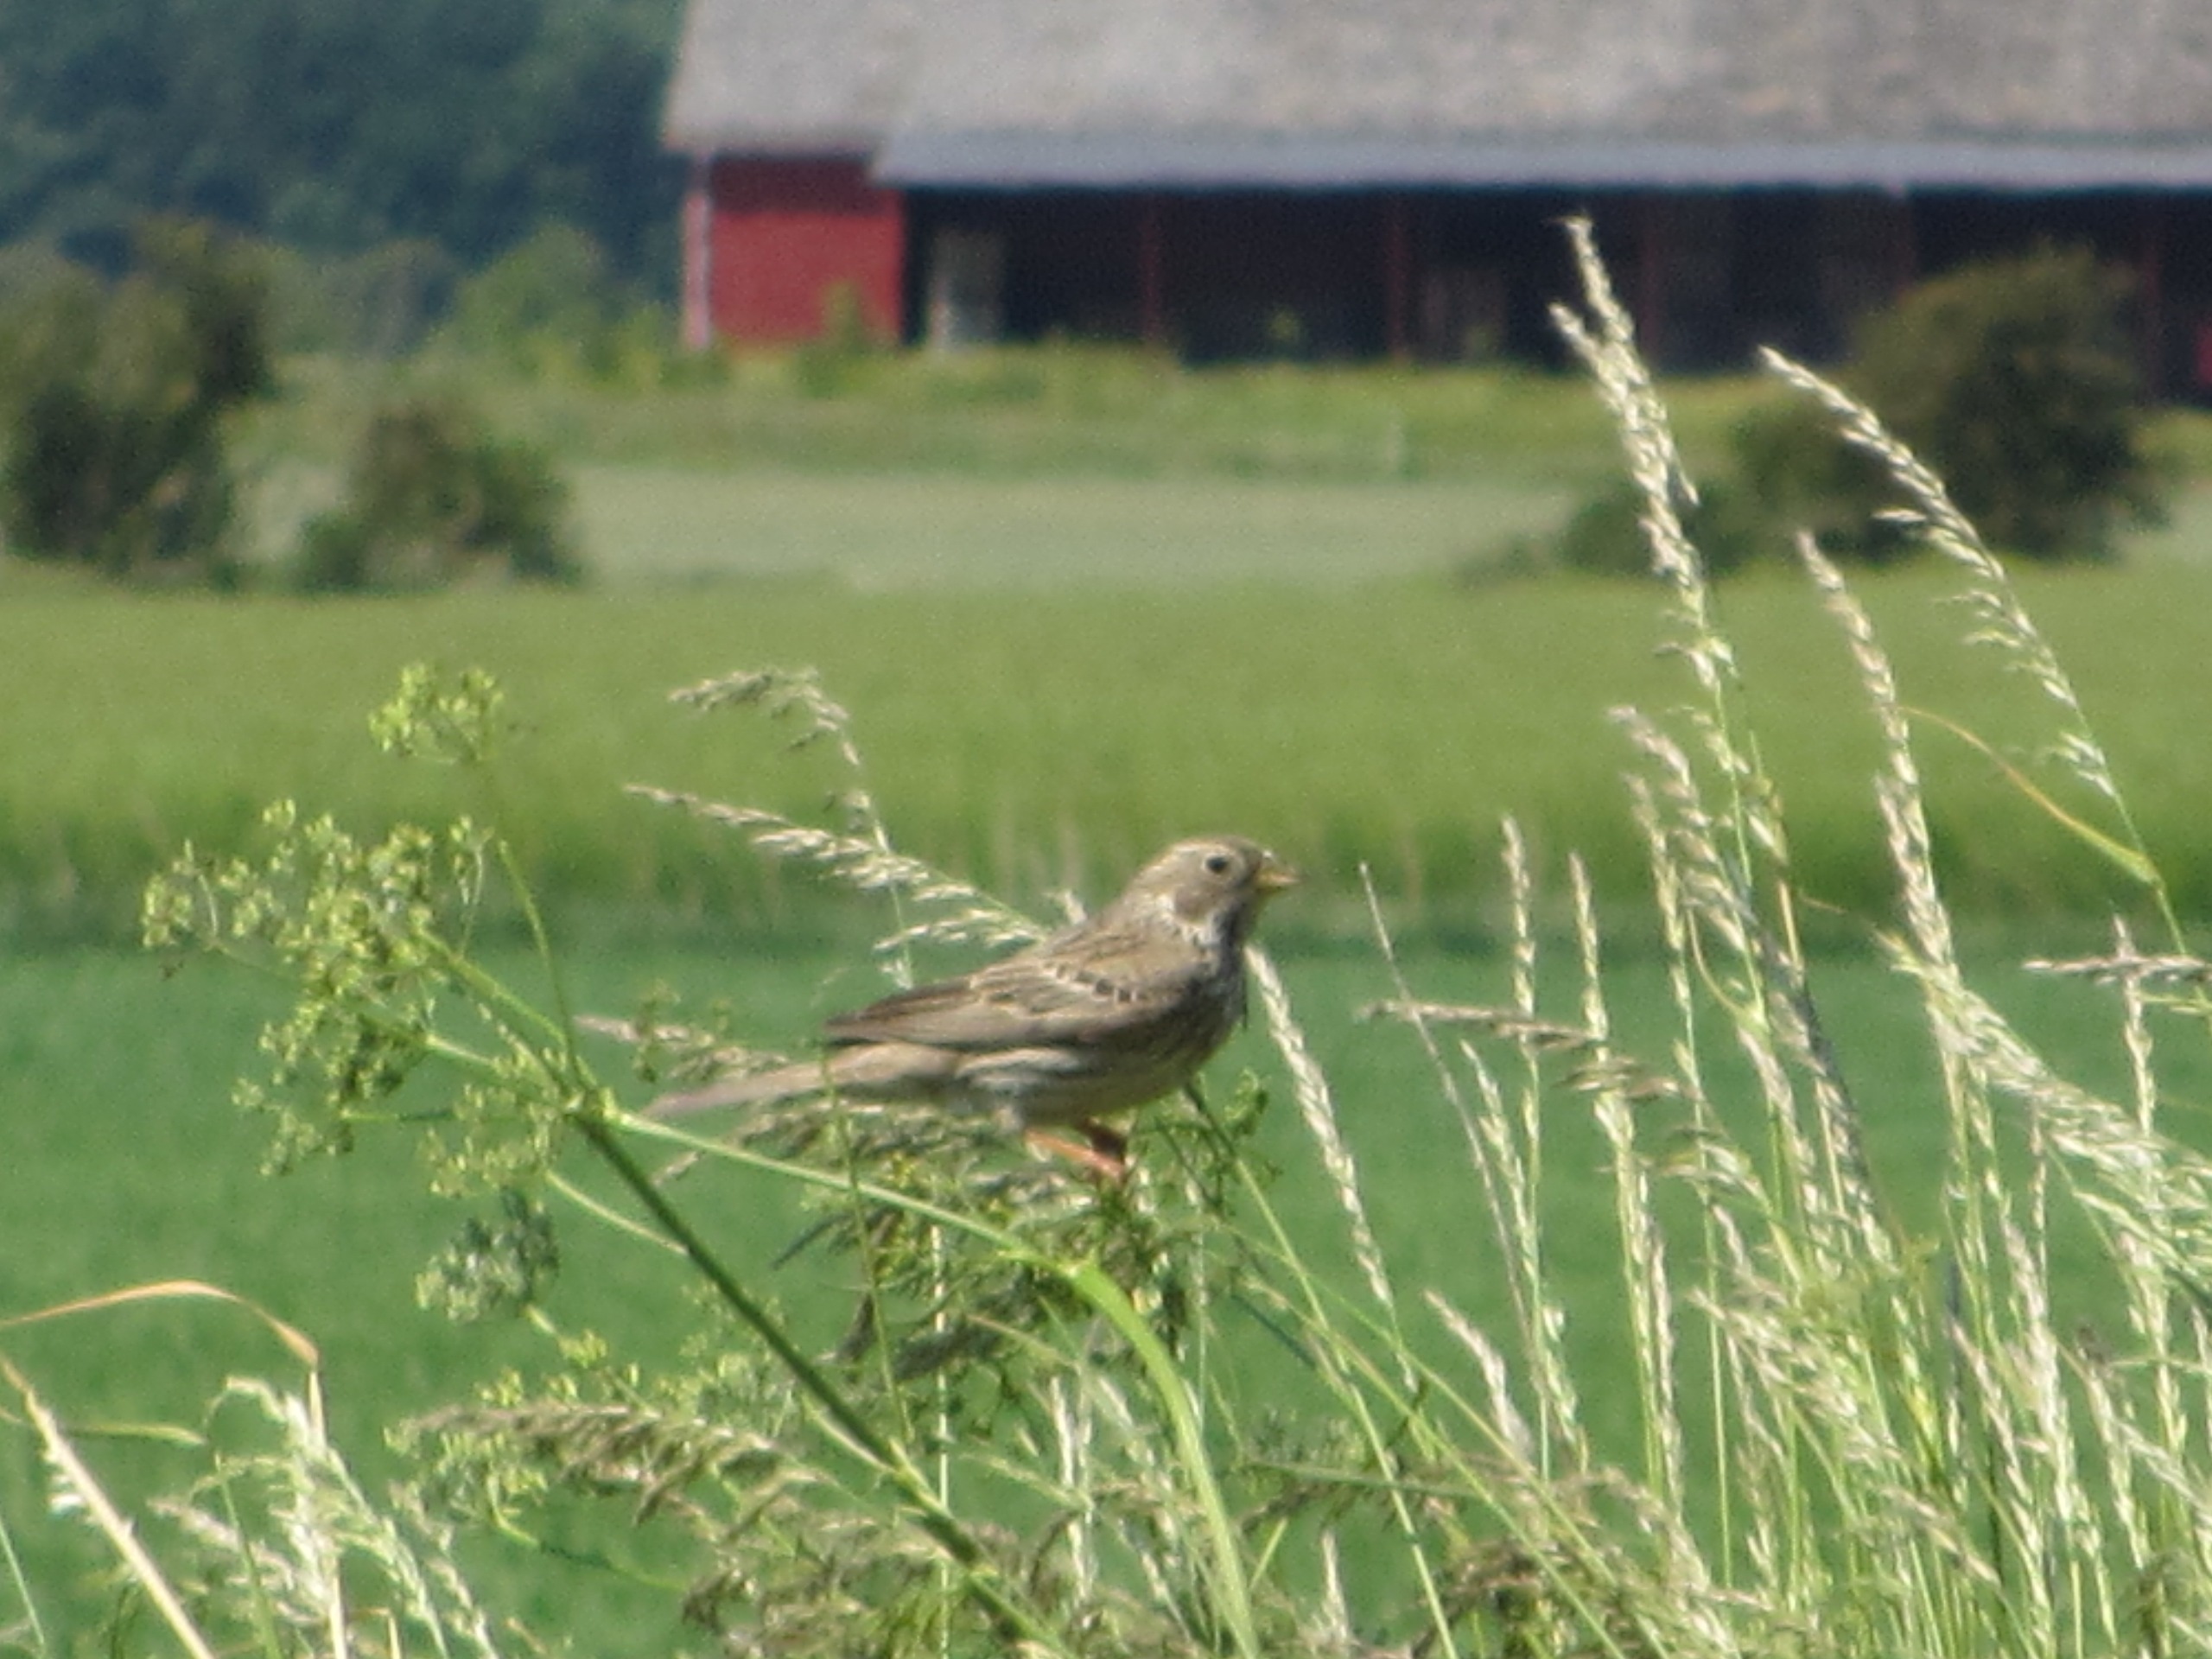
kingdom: Animalia
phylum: Chordata
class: Aves
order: Passeriformes
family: Emberizidae
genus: Emberiza
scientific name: Emberiza calandra
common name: Bomlærke
